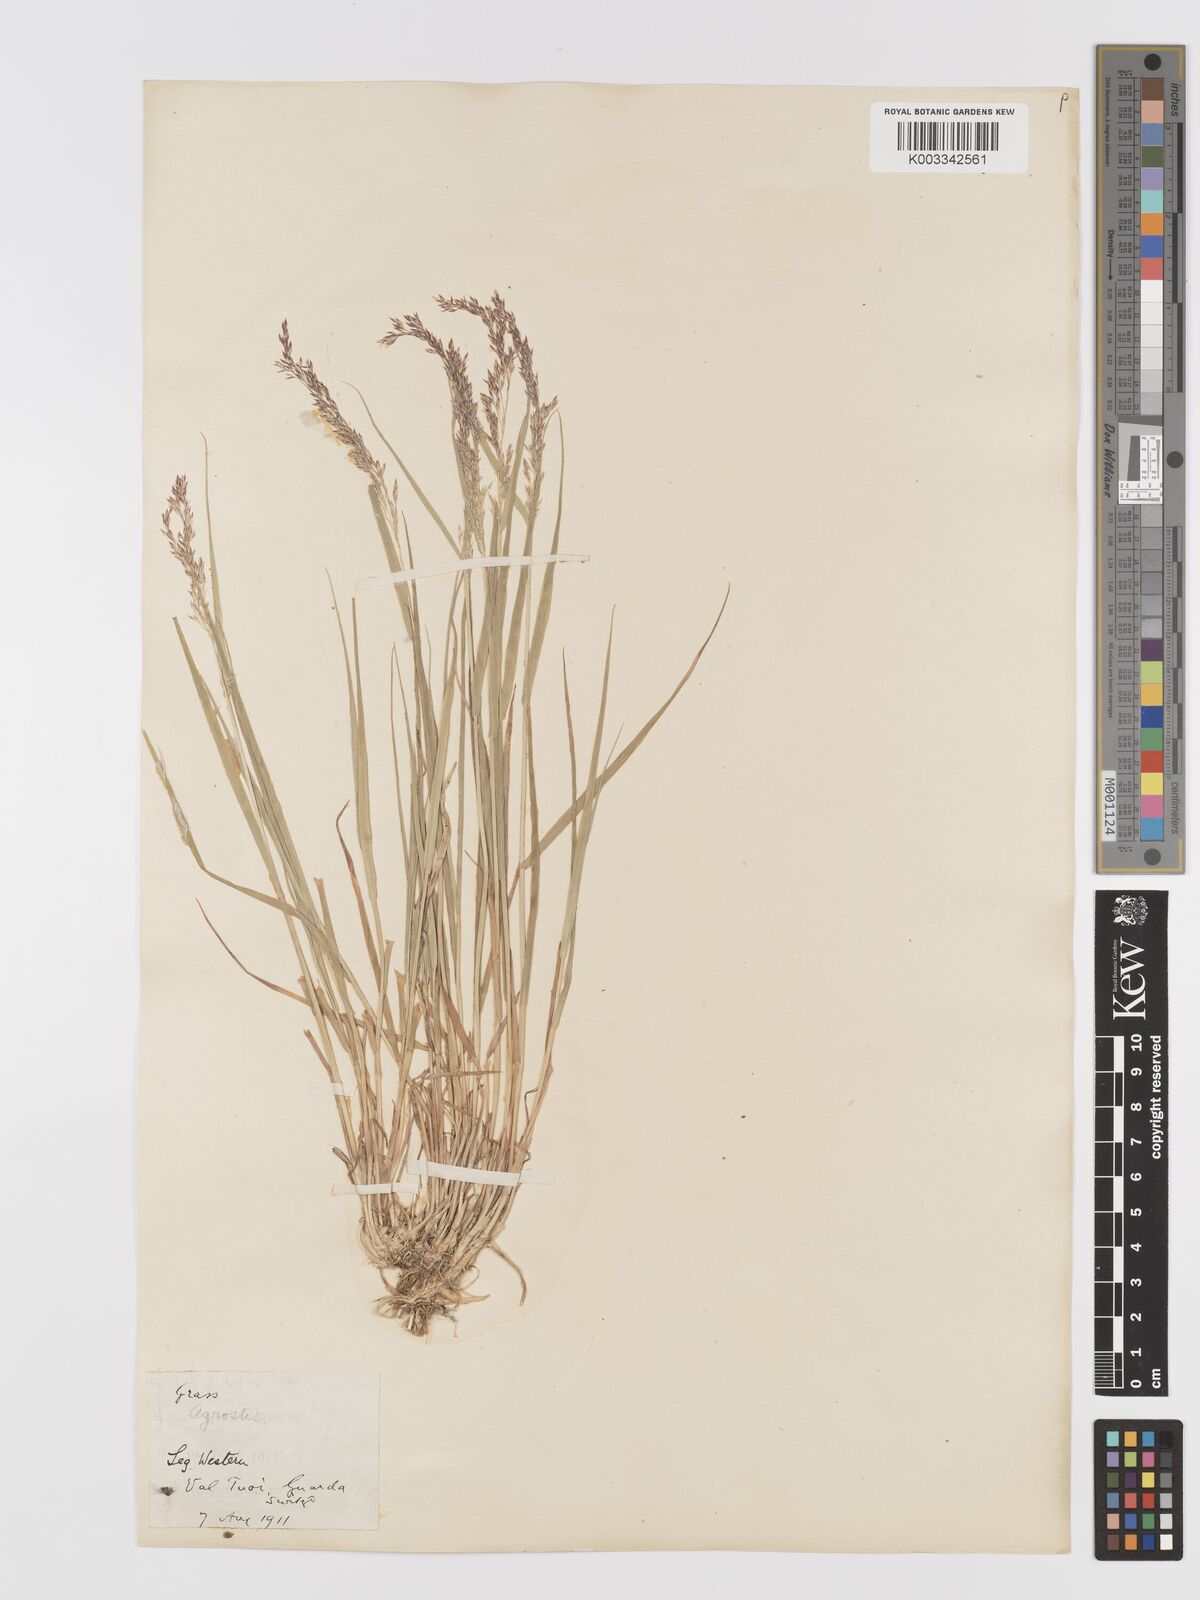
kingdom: Plantae
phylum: Tracheophyta
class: Liliopsida
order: Poales
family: Poaceae
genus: Agrostis
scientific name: Agrostis
